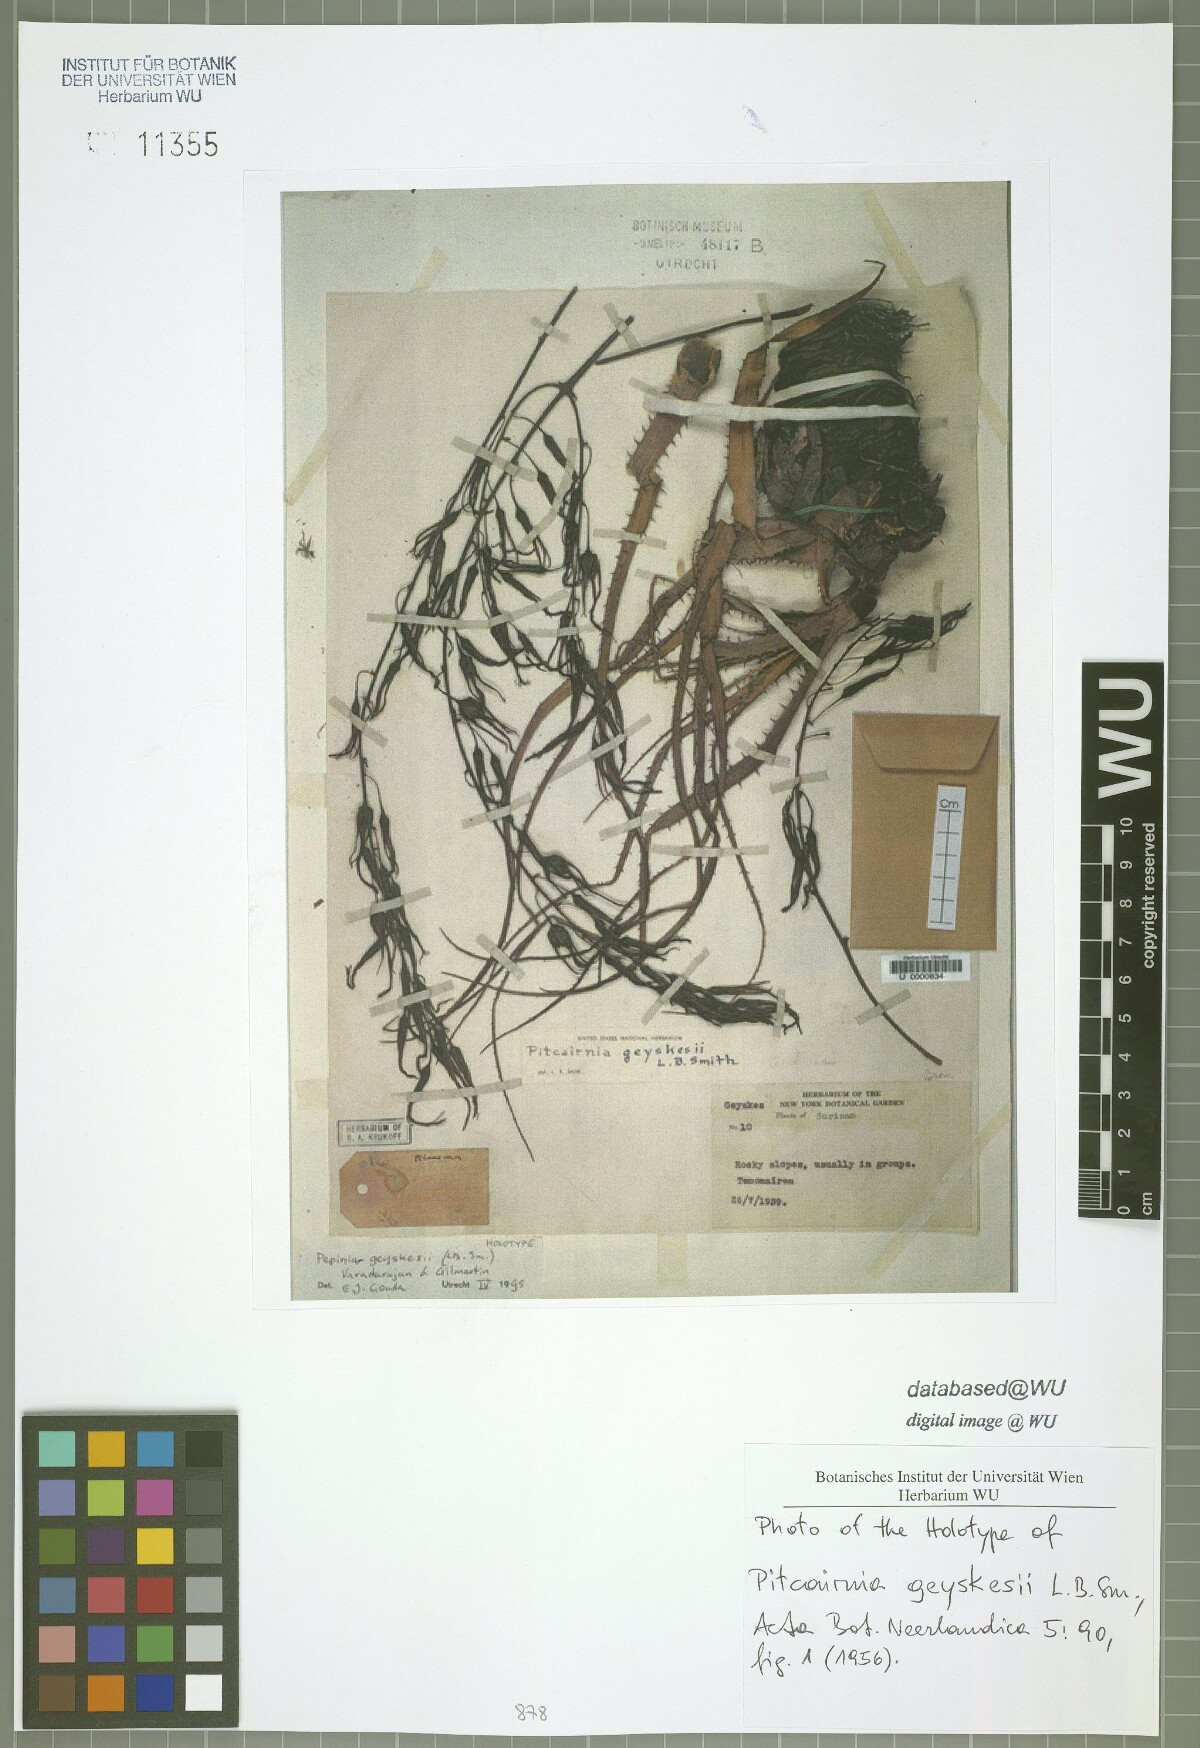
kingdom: Plantae
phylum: Tracheophyta
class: Liliopsida
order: Poales
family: Bromeliaceae
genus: Pitcairnia
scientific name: Pitcairnia geyskesii
